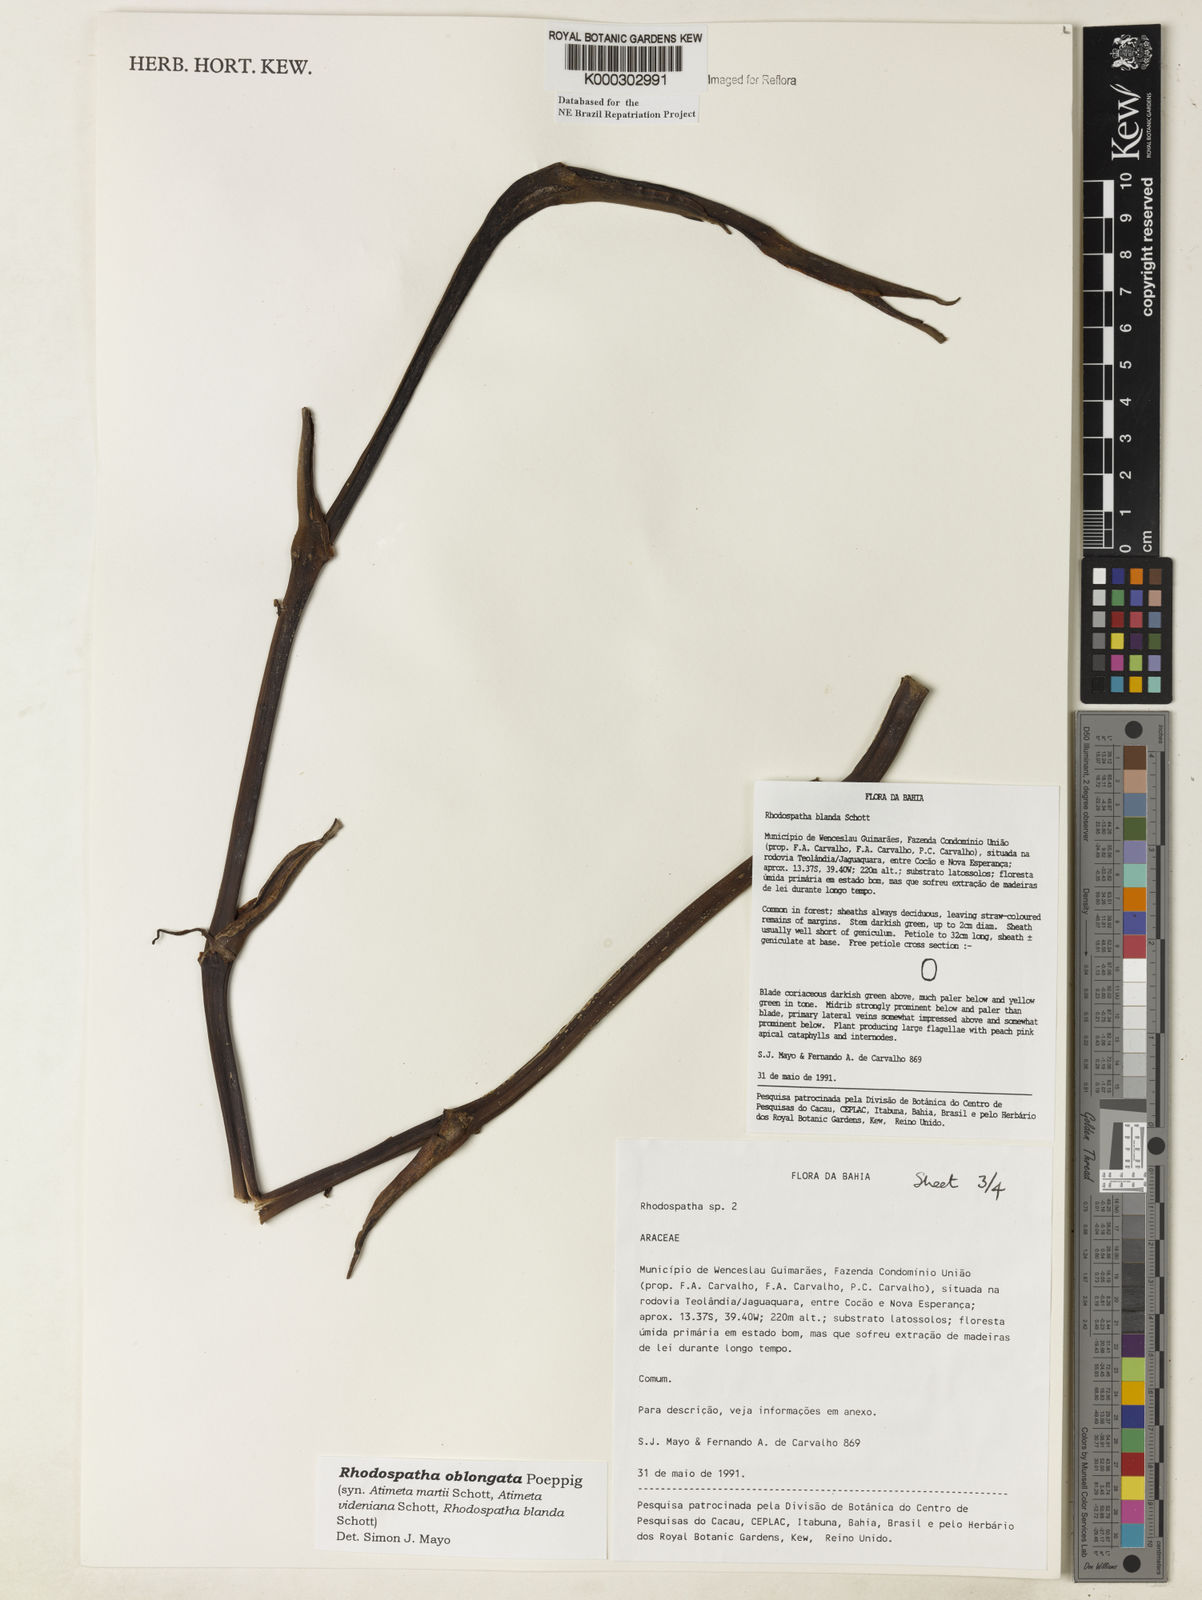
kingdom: Plantae
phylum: Tracheophyta
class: Liliopsida
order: Alismatales
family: Araceae
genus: Rhodospatha
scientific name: Rhodospatha oblongata
